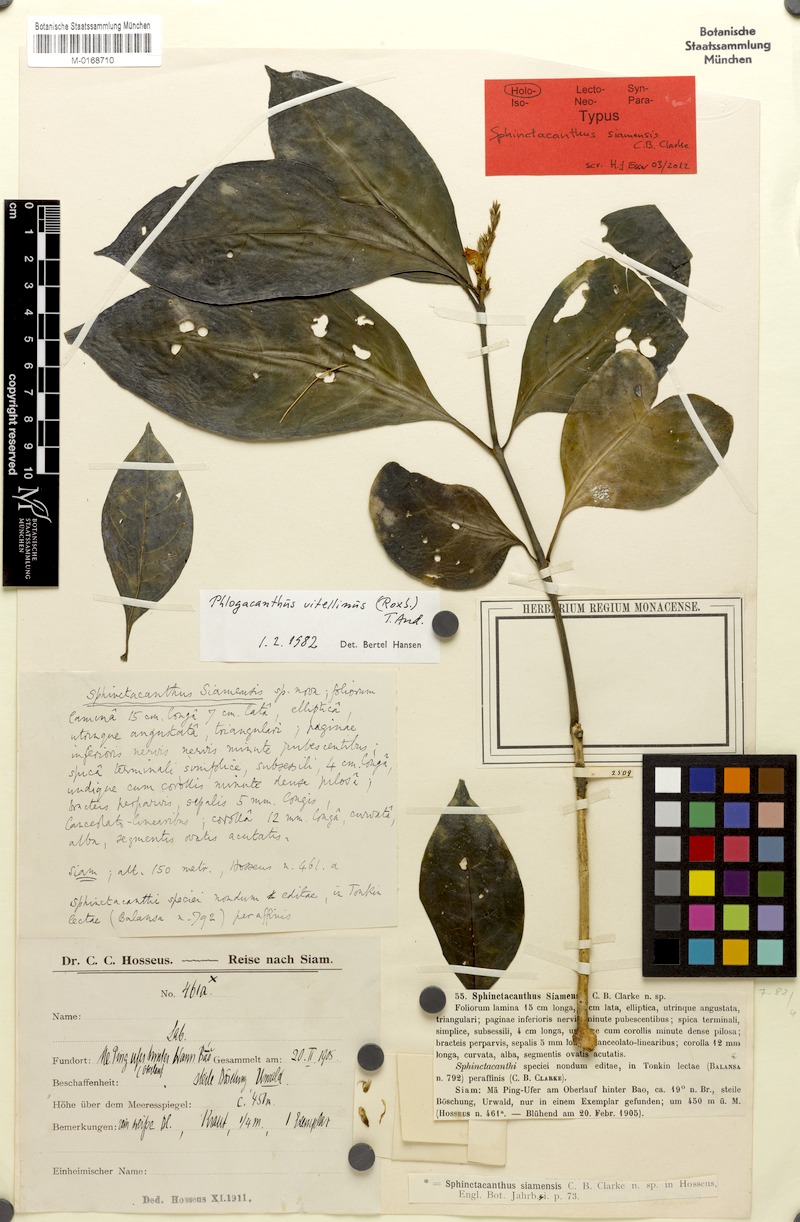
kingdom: Plantae
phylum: Tracheophyta
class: Magnoliopsida
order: Lamiales
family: Acanthaceae
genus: Phlogacanthus
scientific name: Phlogacanthus vitellinus
